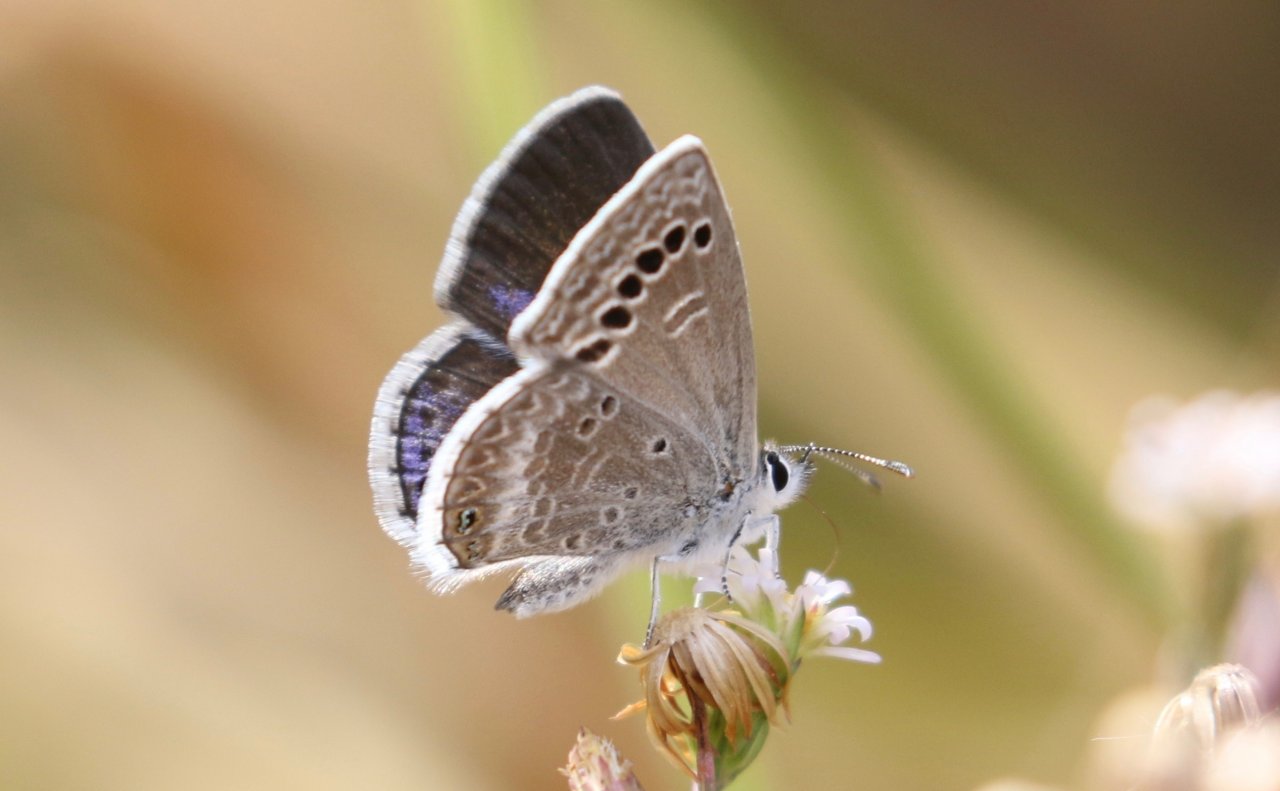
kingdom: Animalia
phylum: Arthropoda
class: Insecta
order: Lepidoptera
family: Lycaenidae
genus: Echinargus
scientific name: Echinargus isola
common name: Reakirt's Blue
